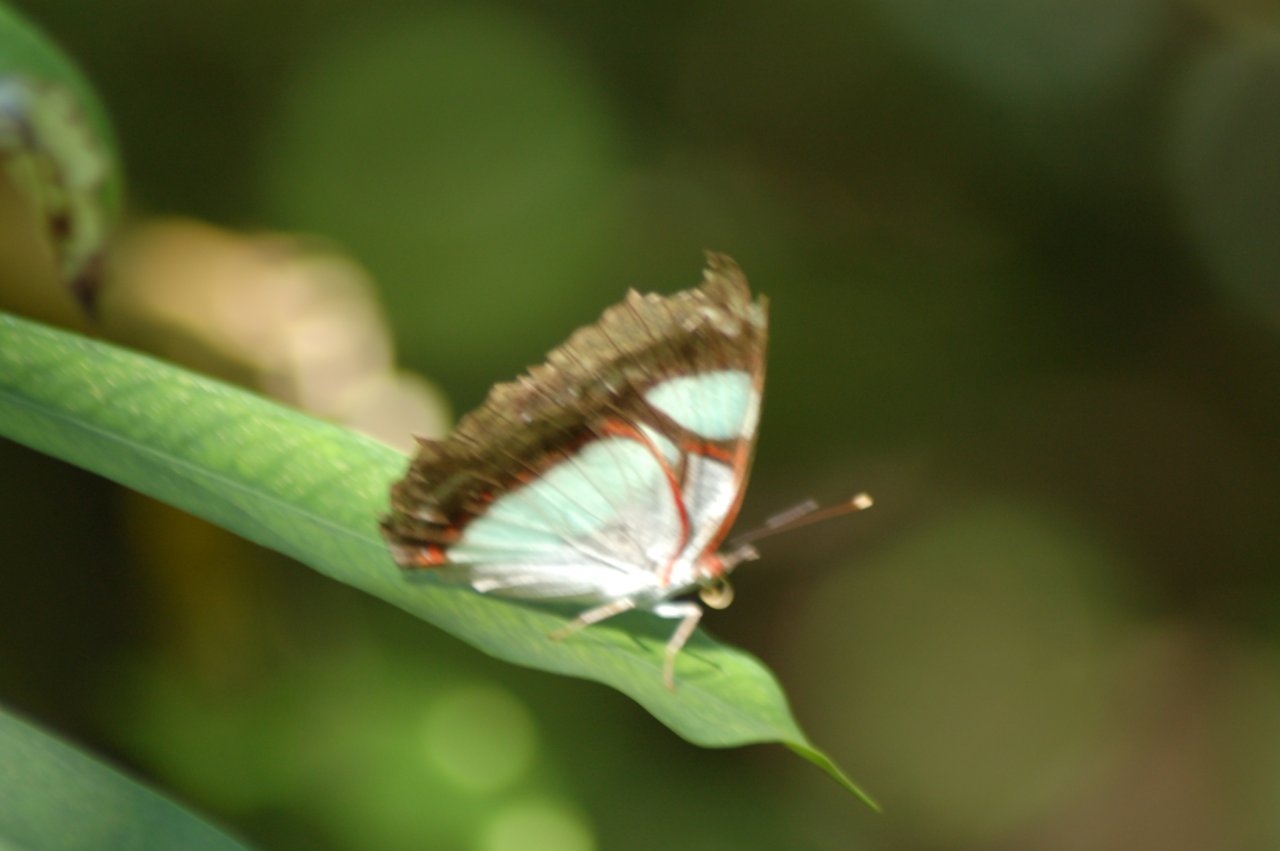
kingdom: Animalia
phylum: Arthropoda
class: Insecta
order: Lepidoptera
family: Nymphalidae
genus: Pyrrhogyra
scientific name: Pyrrhogyra otolais
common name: Double-banded Banner
